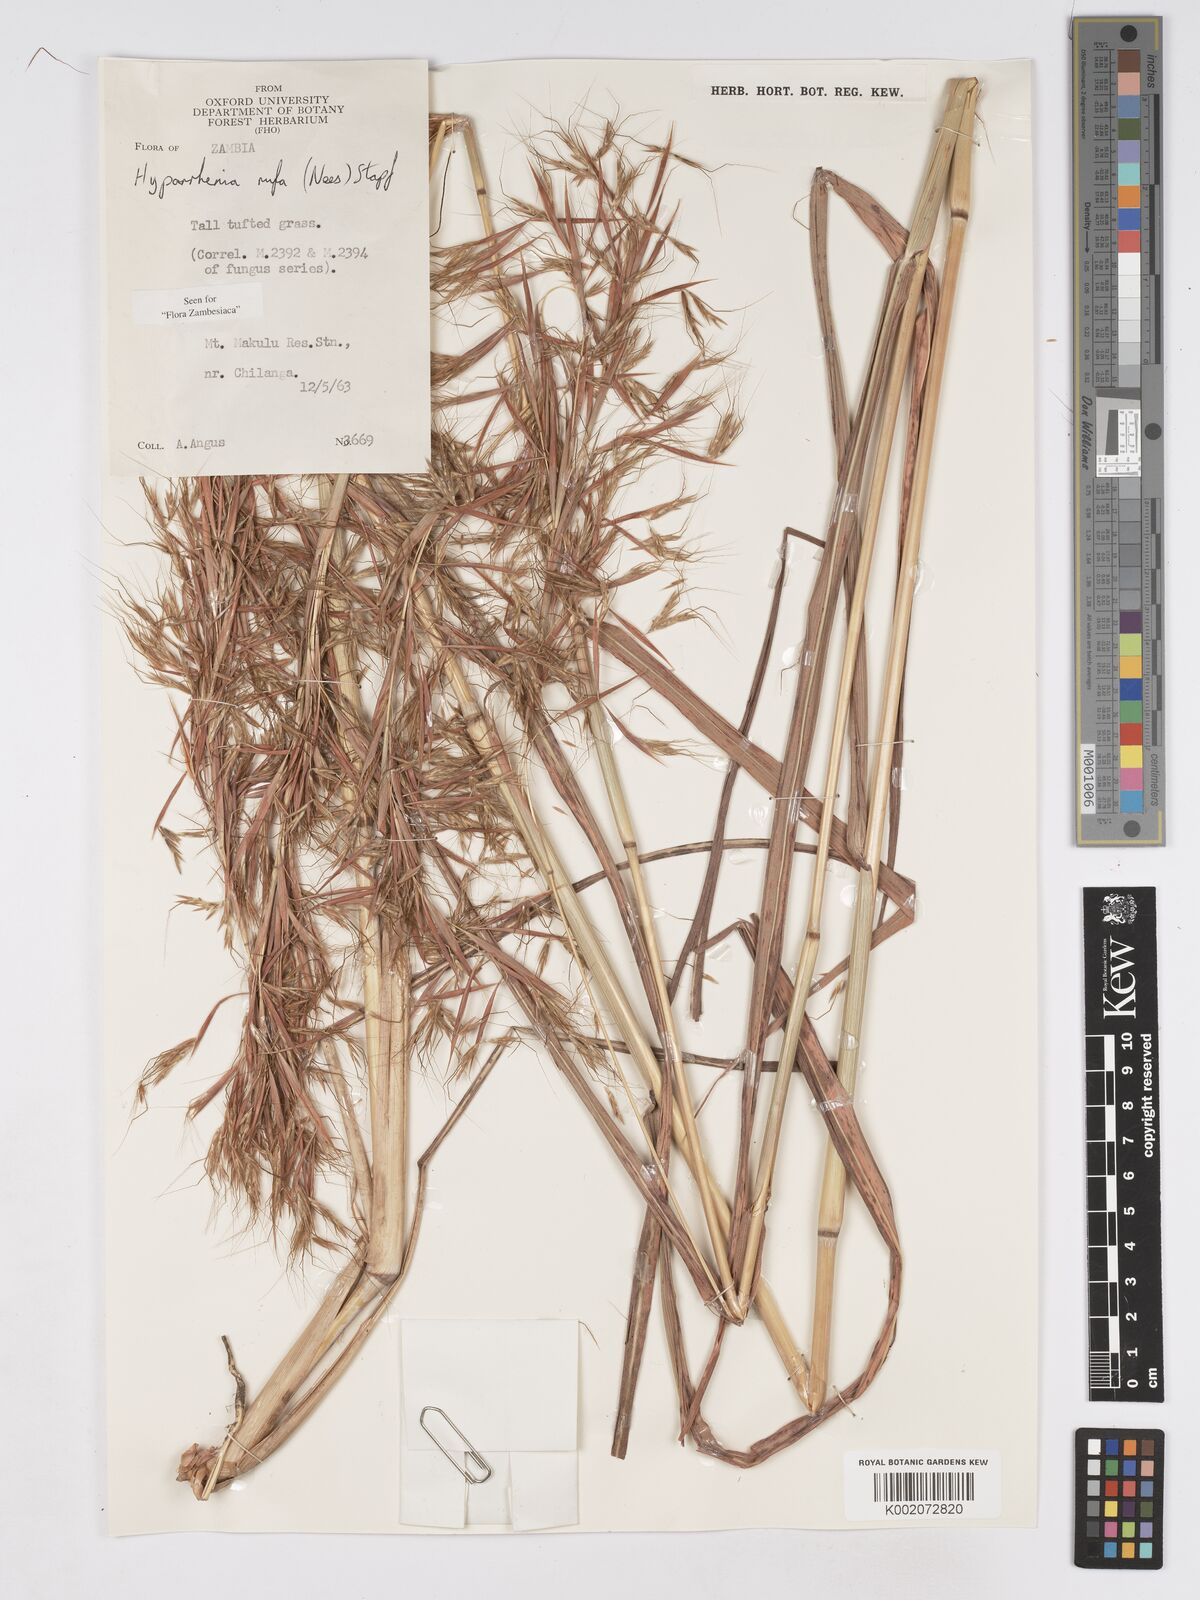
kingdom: Plantae
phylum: Tracheophyta
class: Liliopsida
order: Poales
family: Poaceae
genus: Hyparrhenia
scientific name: Hyparrhenia rufa
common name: Jaraguagrass
